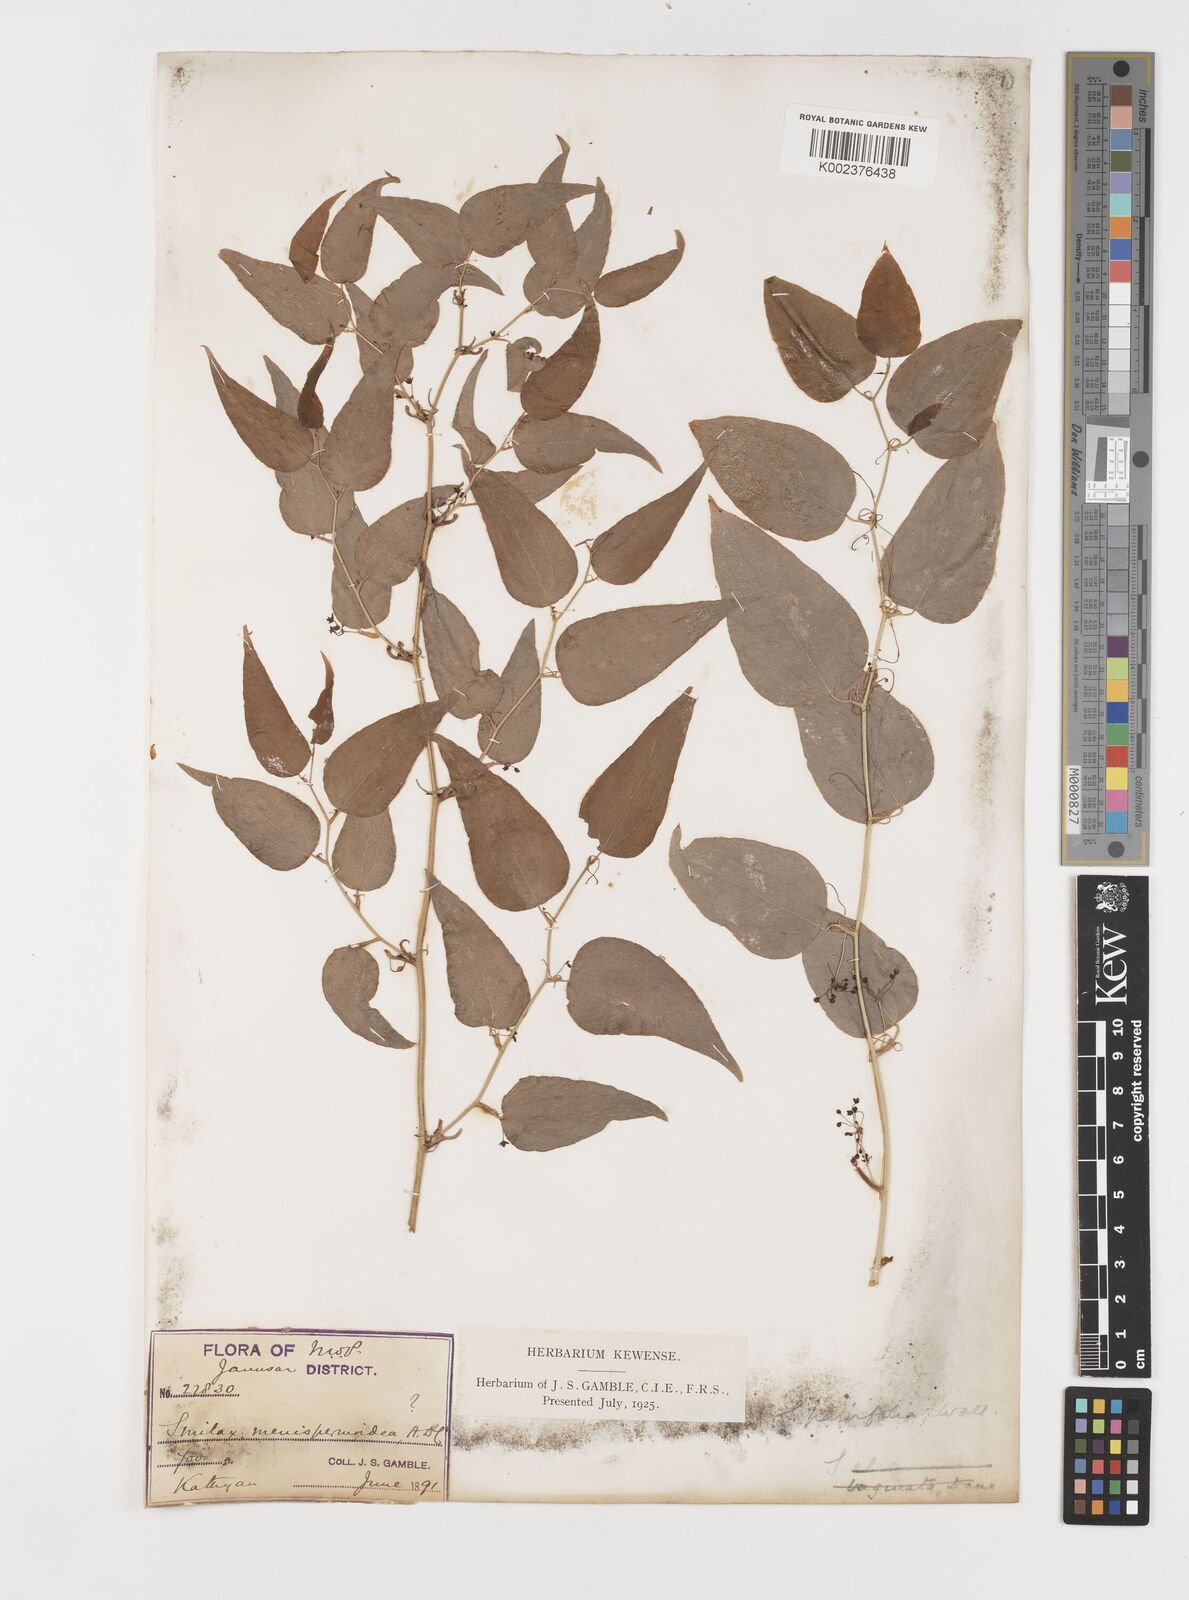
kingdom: Plantae
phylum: Tracheophyta
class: Liliopsida
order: Liliales
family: Smilacaceae
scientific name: Smilacaceae
